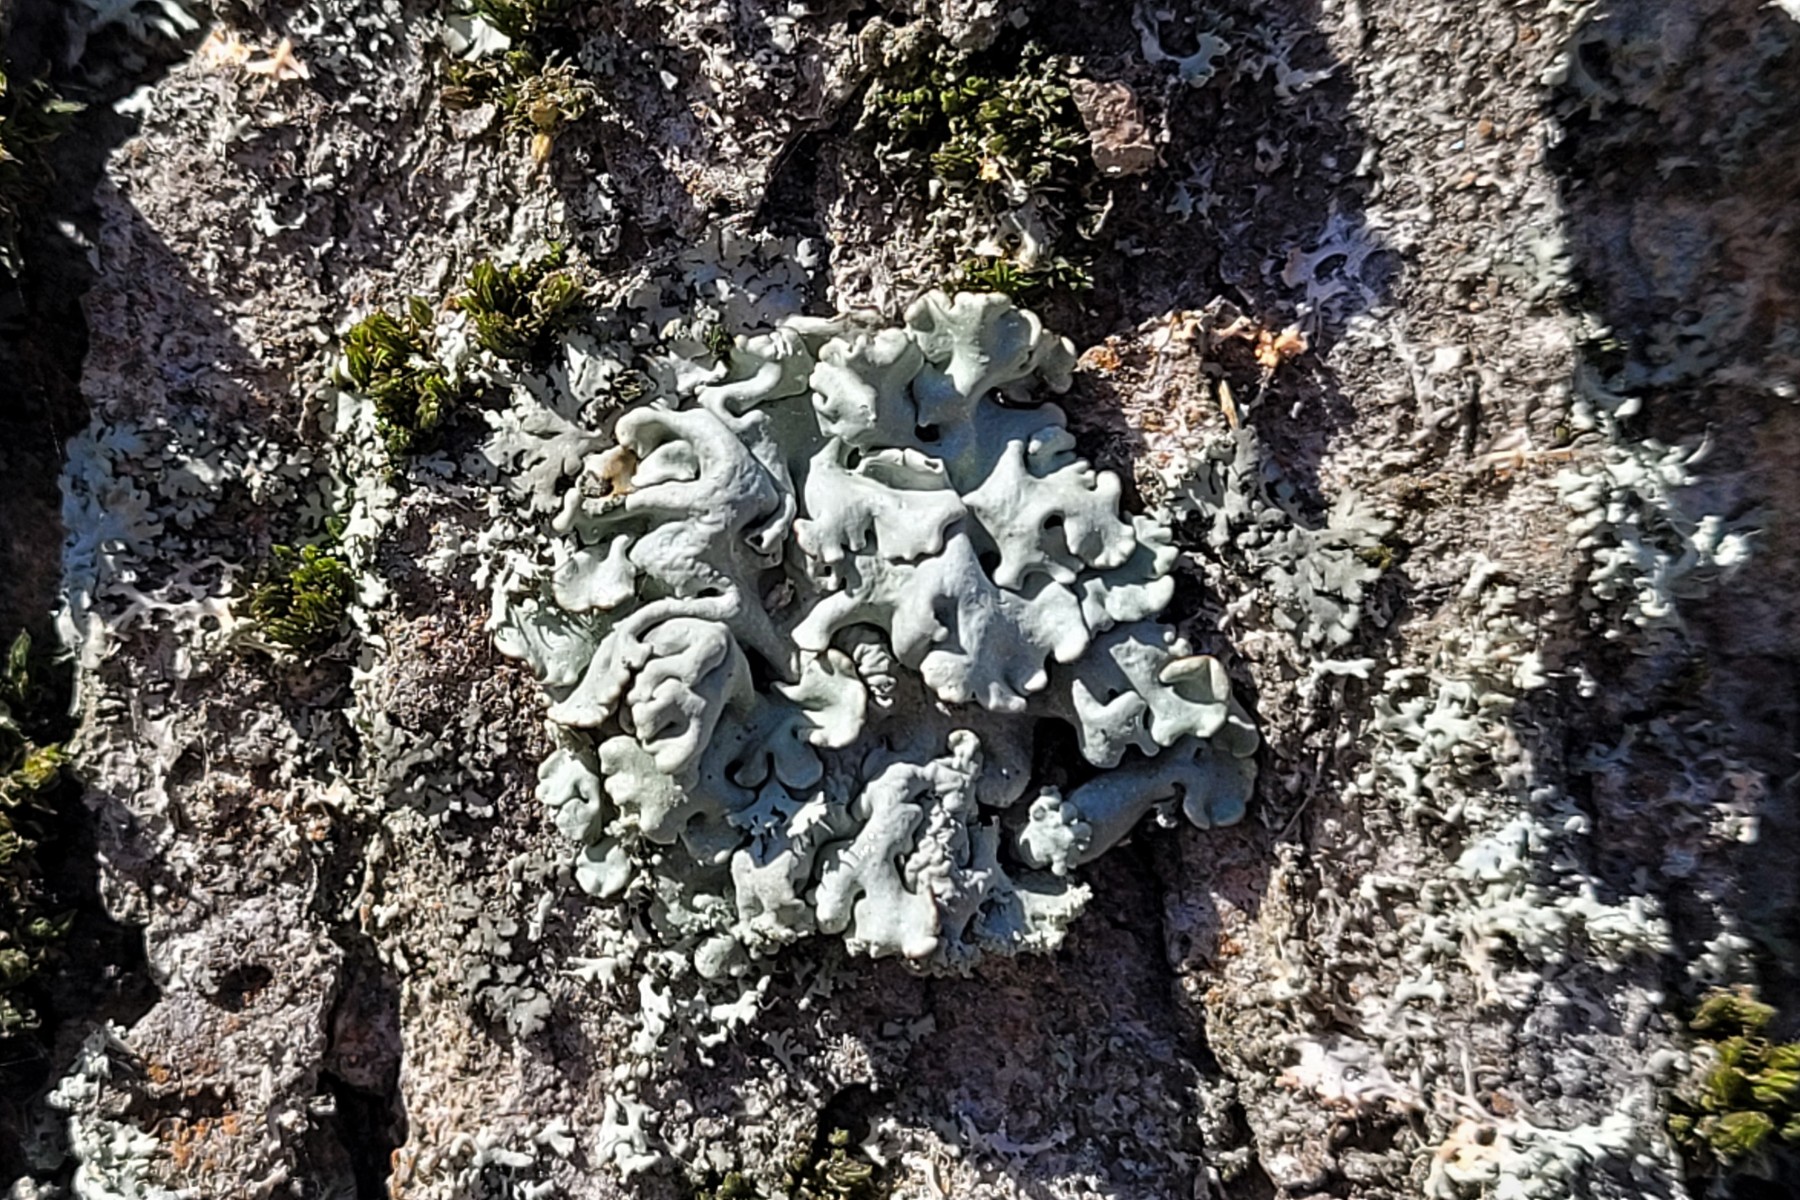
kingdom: Fungi
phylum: Ascomycota
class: Lecanoromycetes
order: Lecanorales
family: Parmeliaceae
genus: Hypogymnia
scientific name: Hypogymnia physodes
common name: almindelig kvistlav
